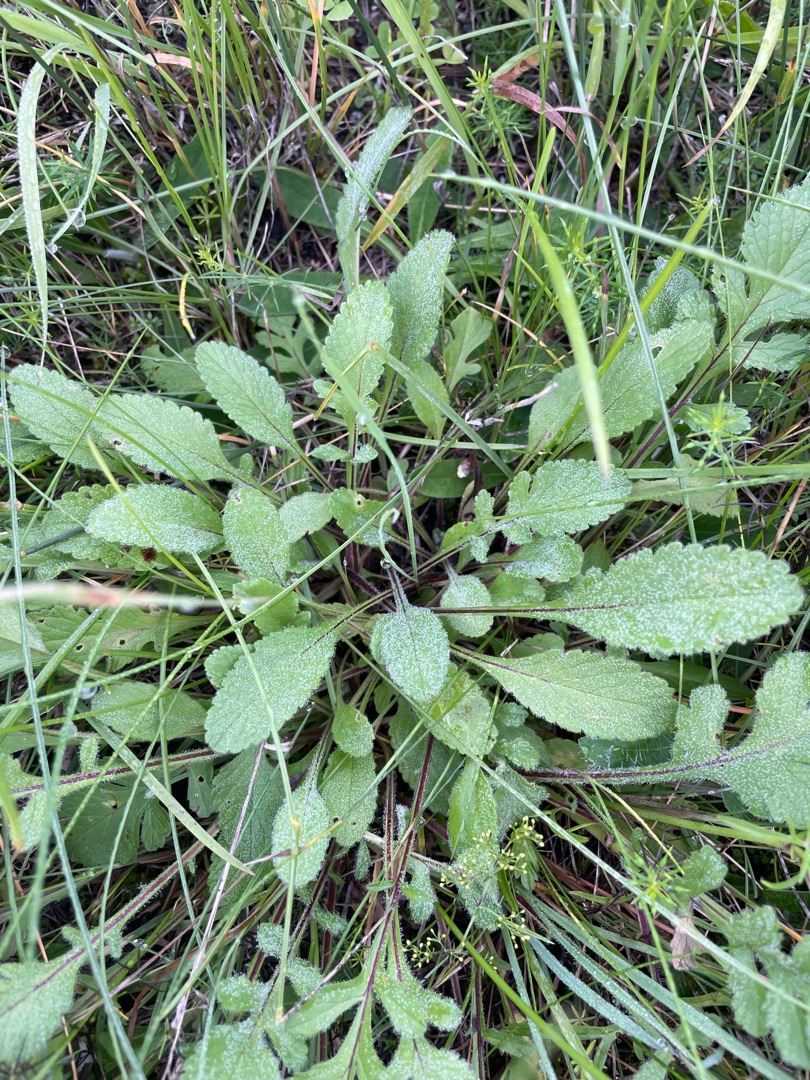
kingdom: Plantae
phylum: Tracheophyta
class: Magnoliopsida
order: Dipsacales
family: Caprifoliaceae
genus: Scabiosa
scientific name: Scabiosa columbaria
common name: Due-skabiose
